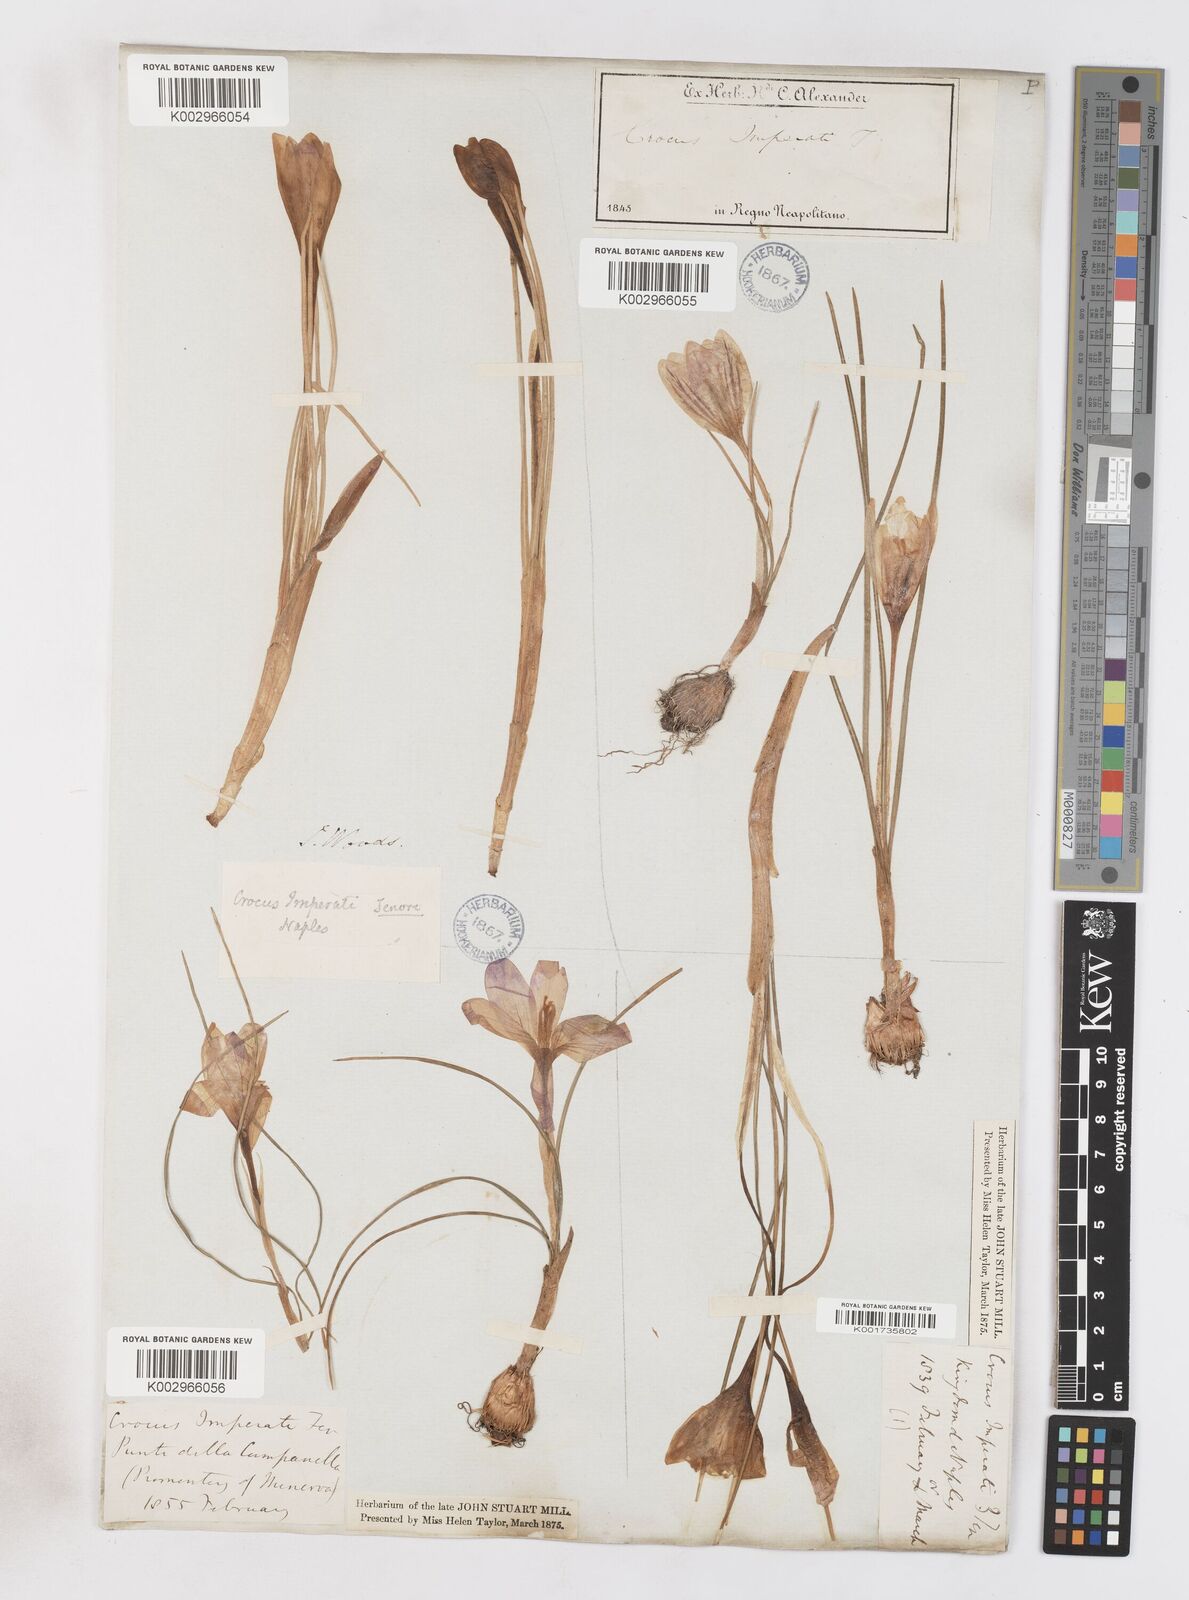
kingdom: Plantae
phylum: Tracheophyta
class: Liliopsida
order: Asparagales
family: Iridaceae
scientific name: Iridaceae
